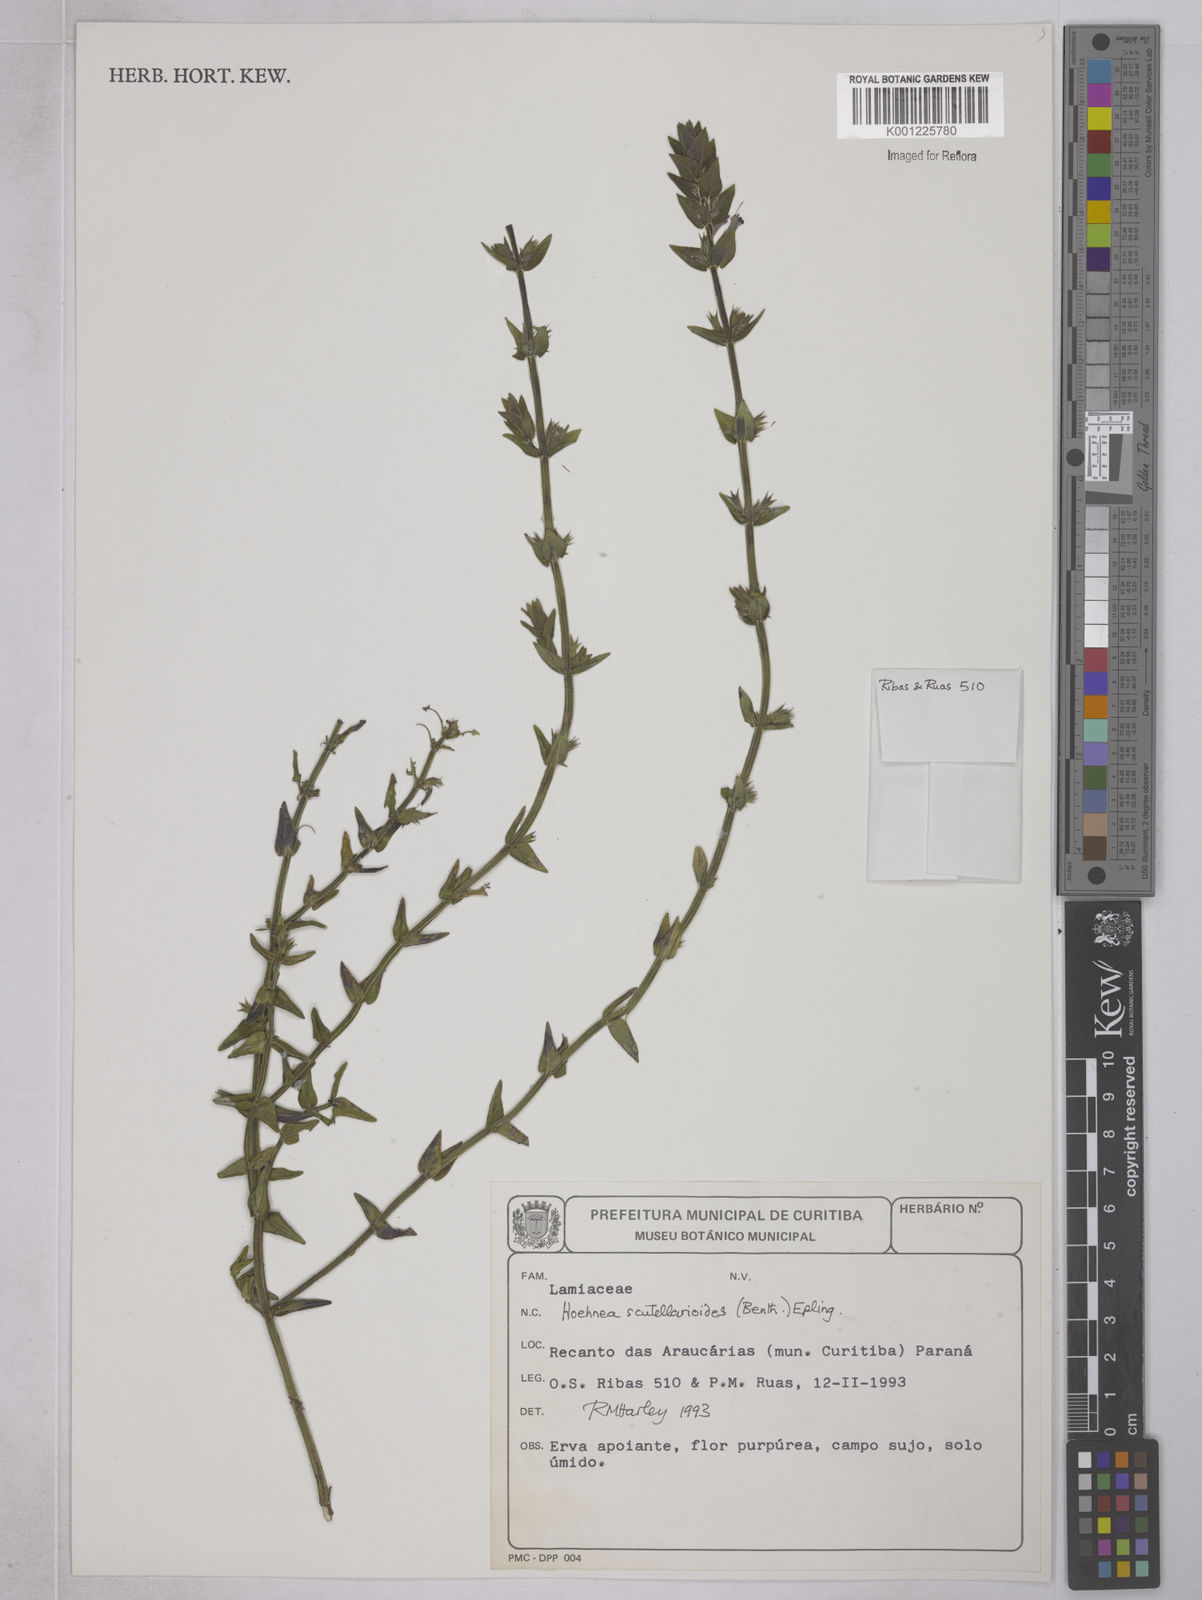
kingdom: Plantae
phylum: Tracheophyta
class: Magnoliopsida
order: Lamiales
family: Lamiaceae
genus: Hoehnea
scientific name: Hoehnea scutellarioides
